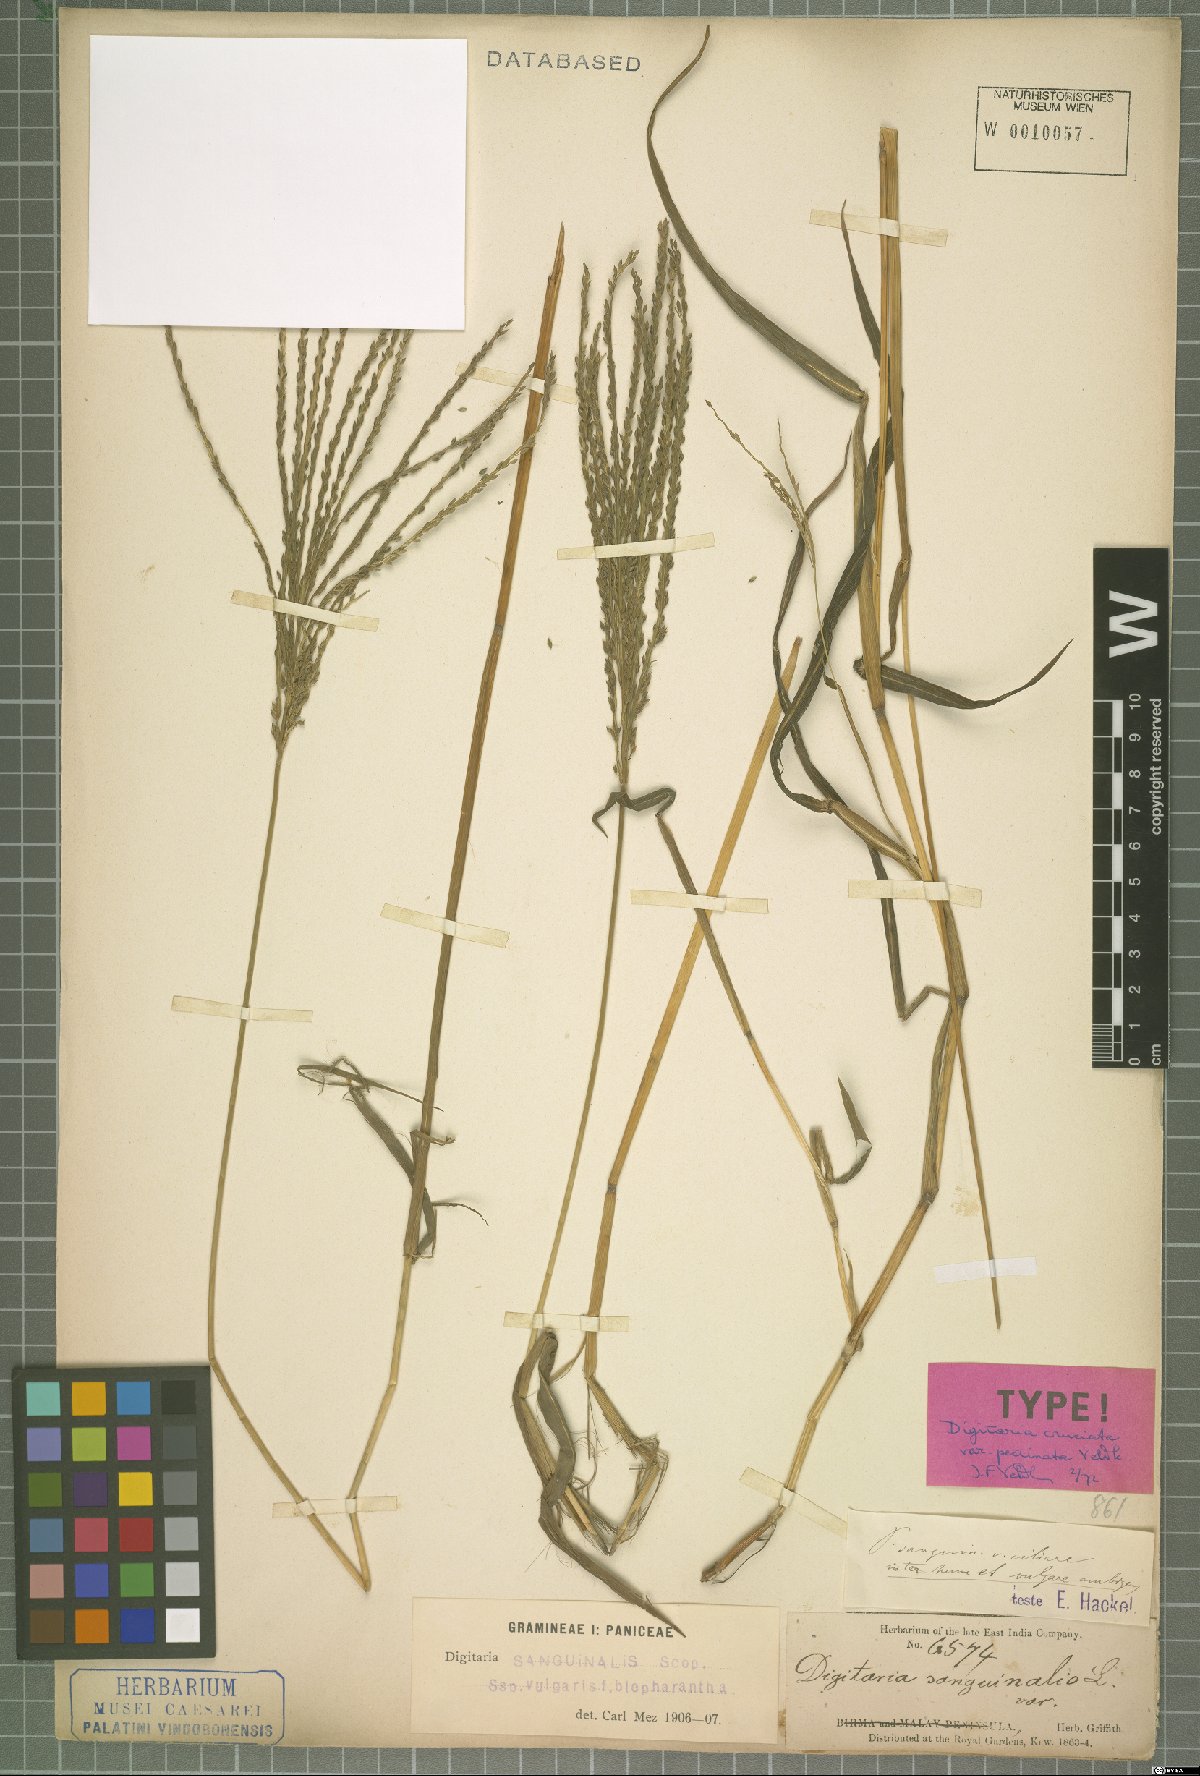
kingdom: Plantae
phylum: Tracheophyta
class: Liliopsida
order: Poales
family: Poaceae
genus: Digitaria
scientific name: Digitaria cruciata
